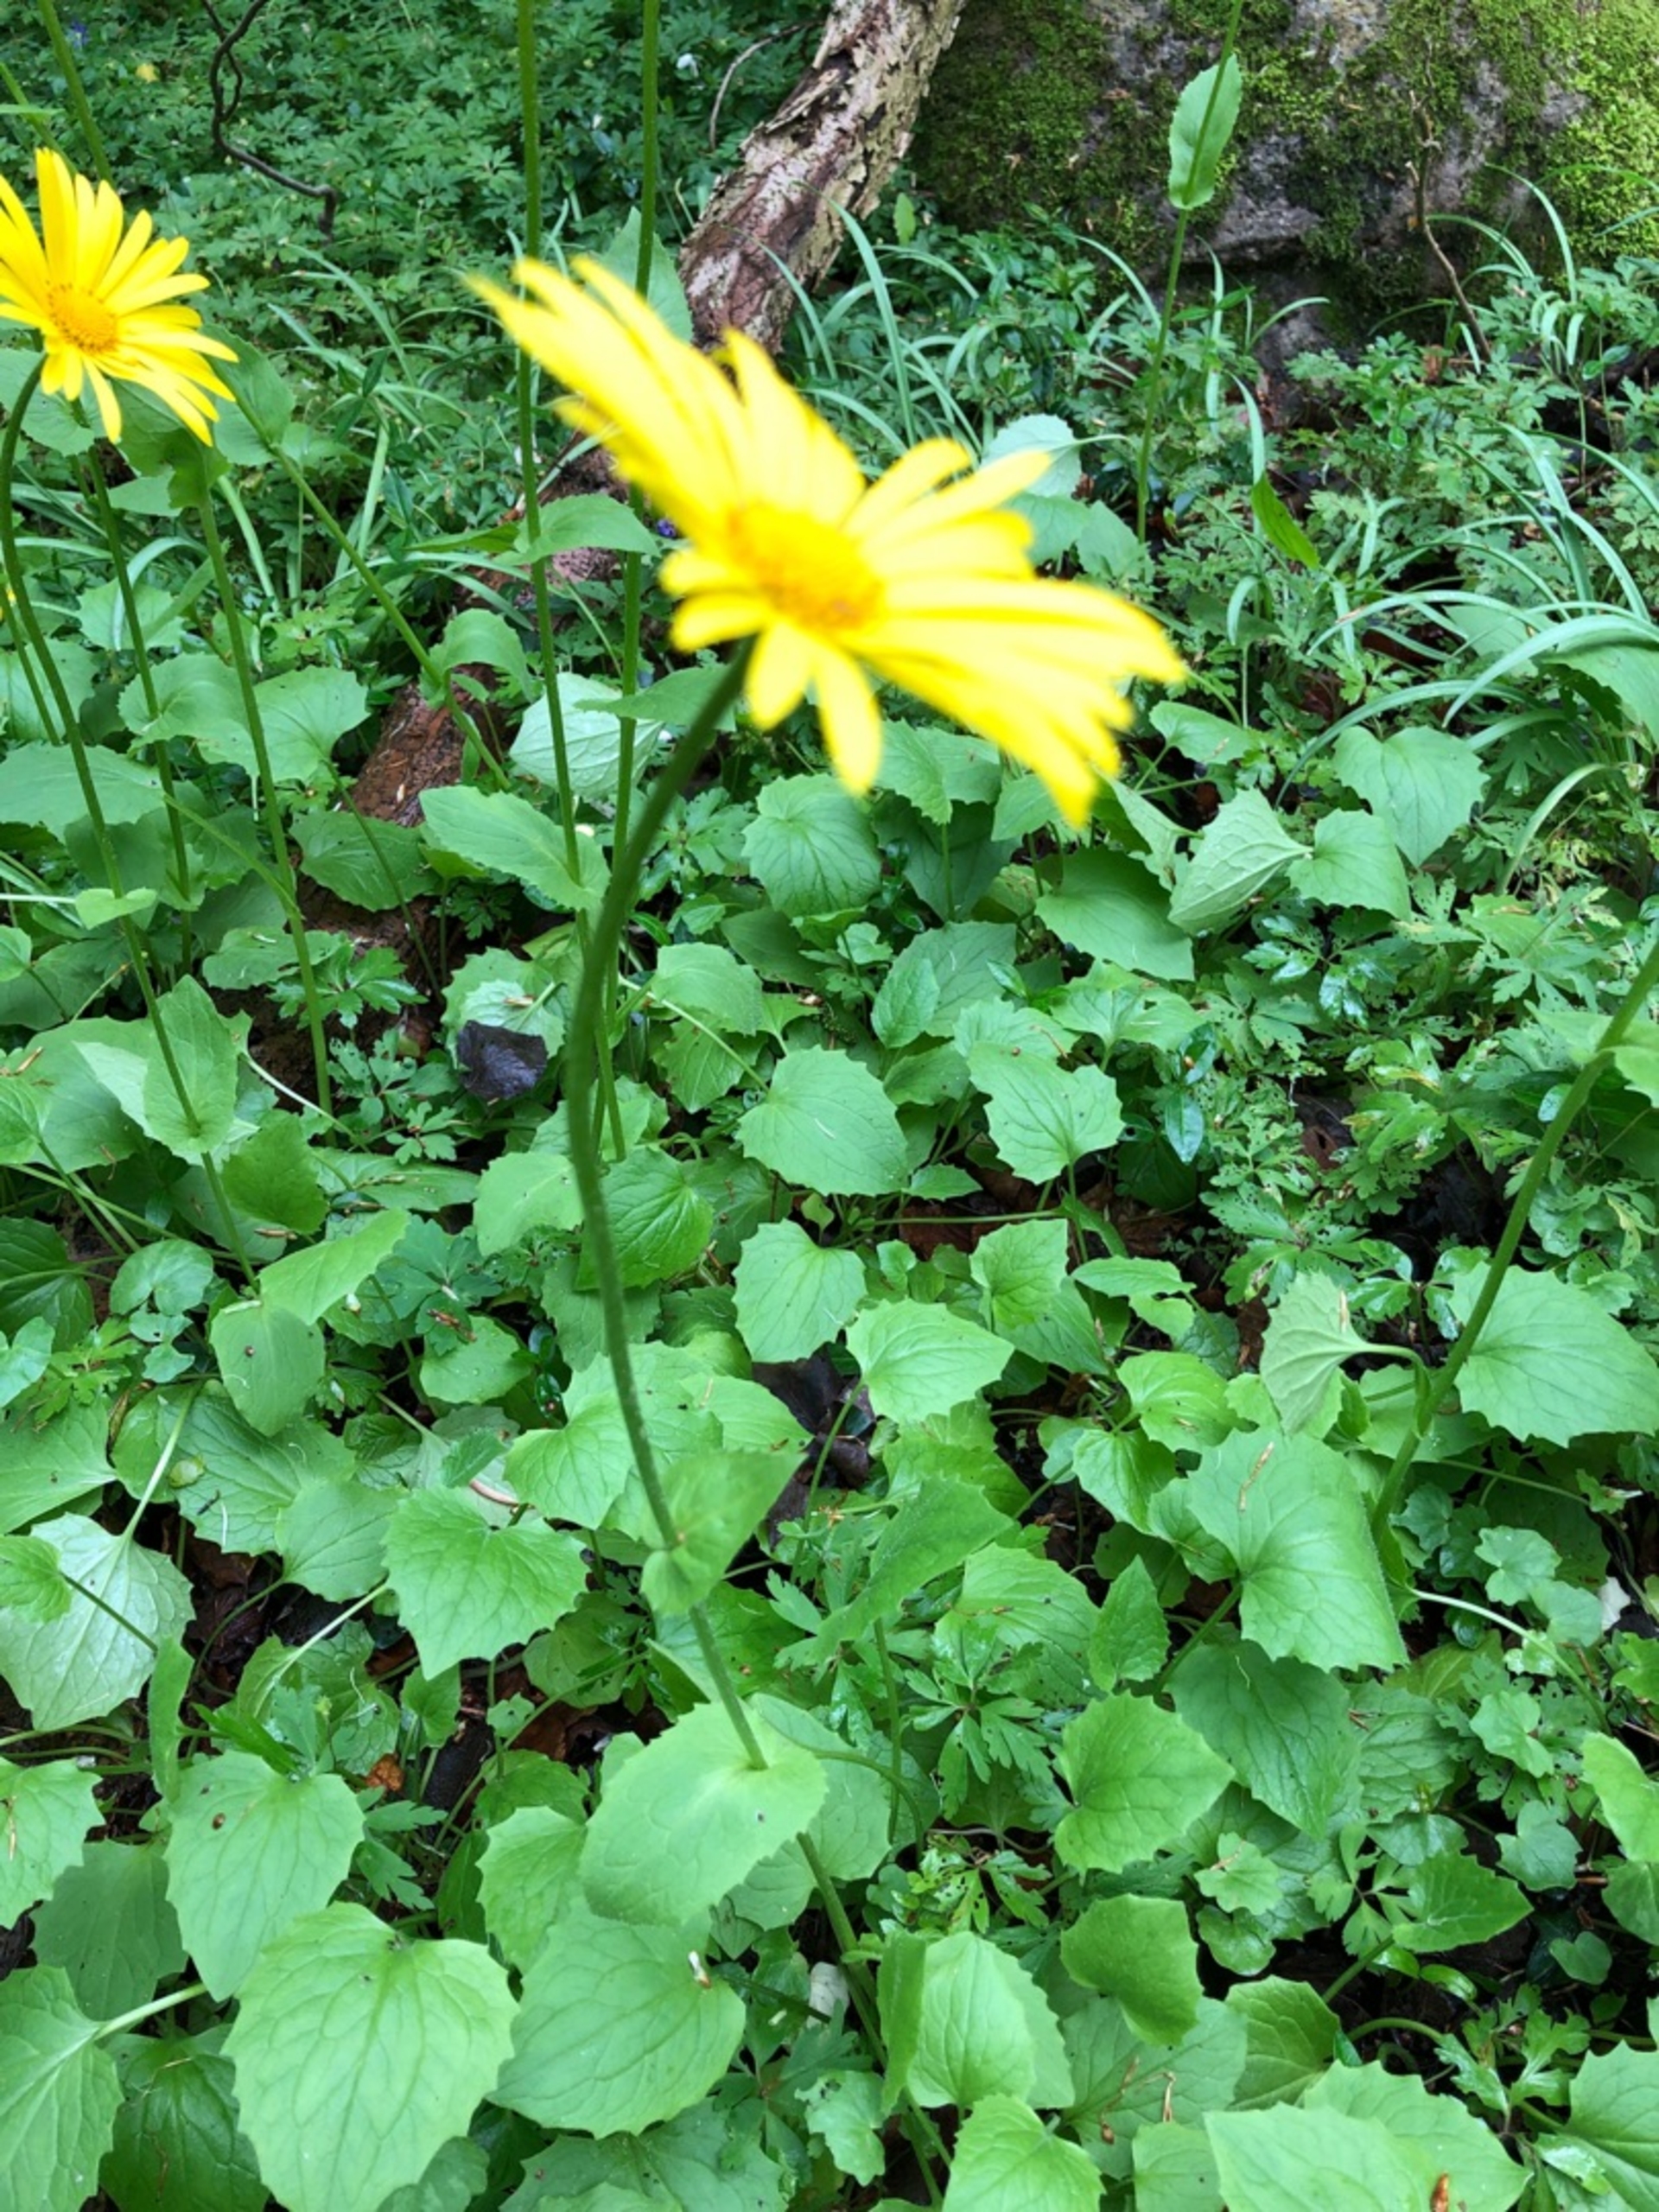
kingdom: Plantae
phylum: Tracheophyta
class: Magnoliopsida
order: Asterales
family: Asteraceae
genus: Doronicum
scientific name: Doronicum orientale
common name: Balkan-gemserod
